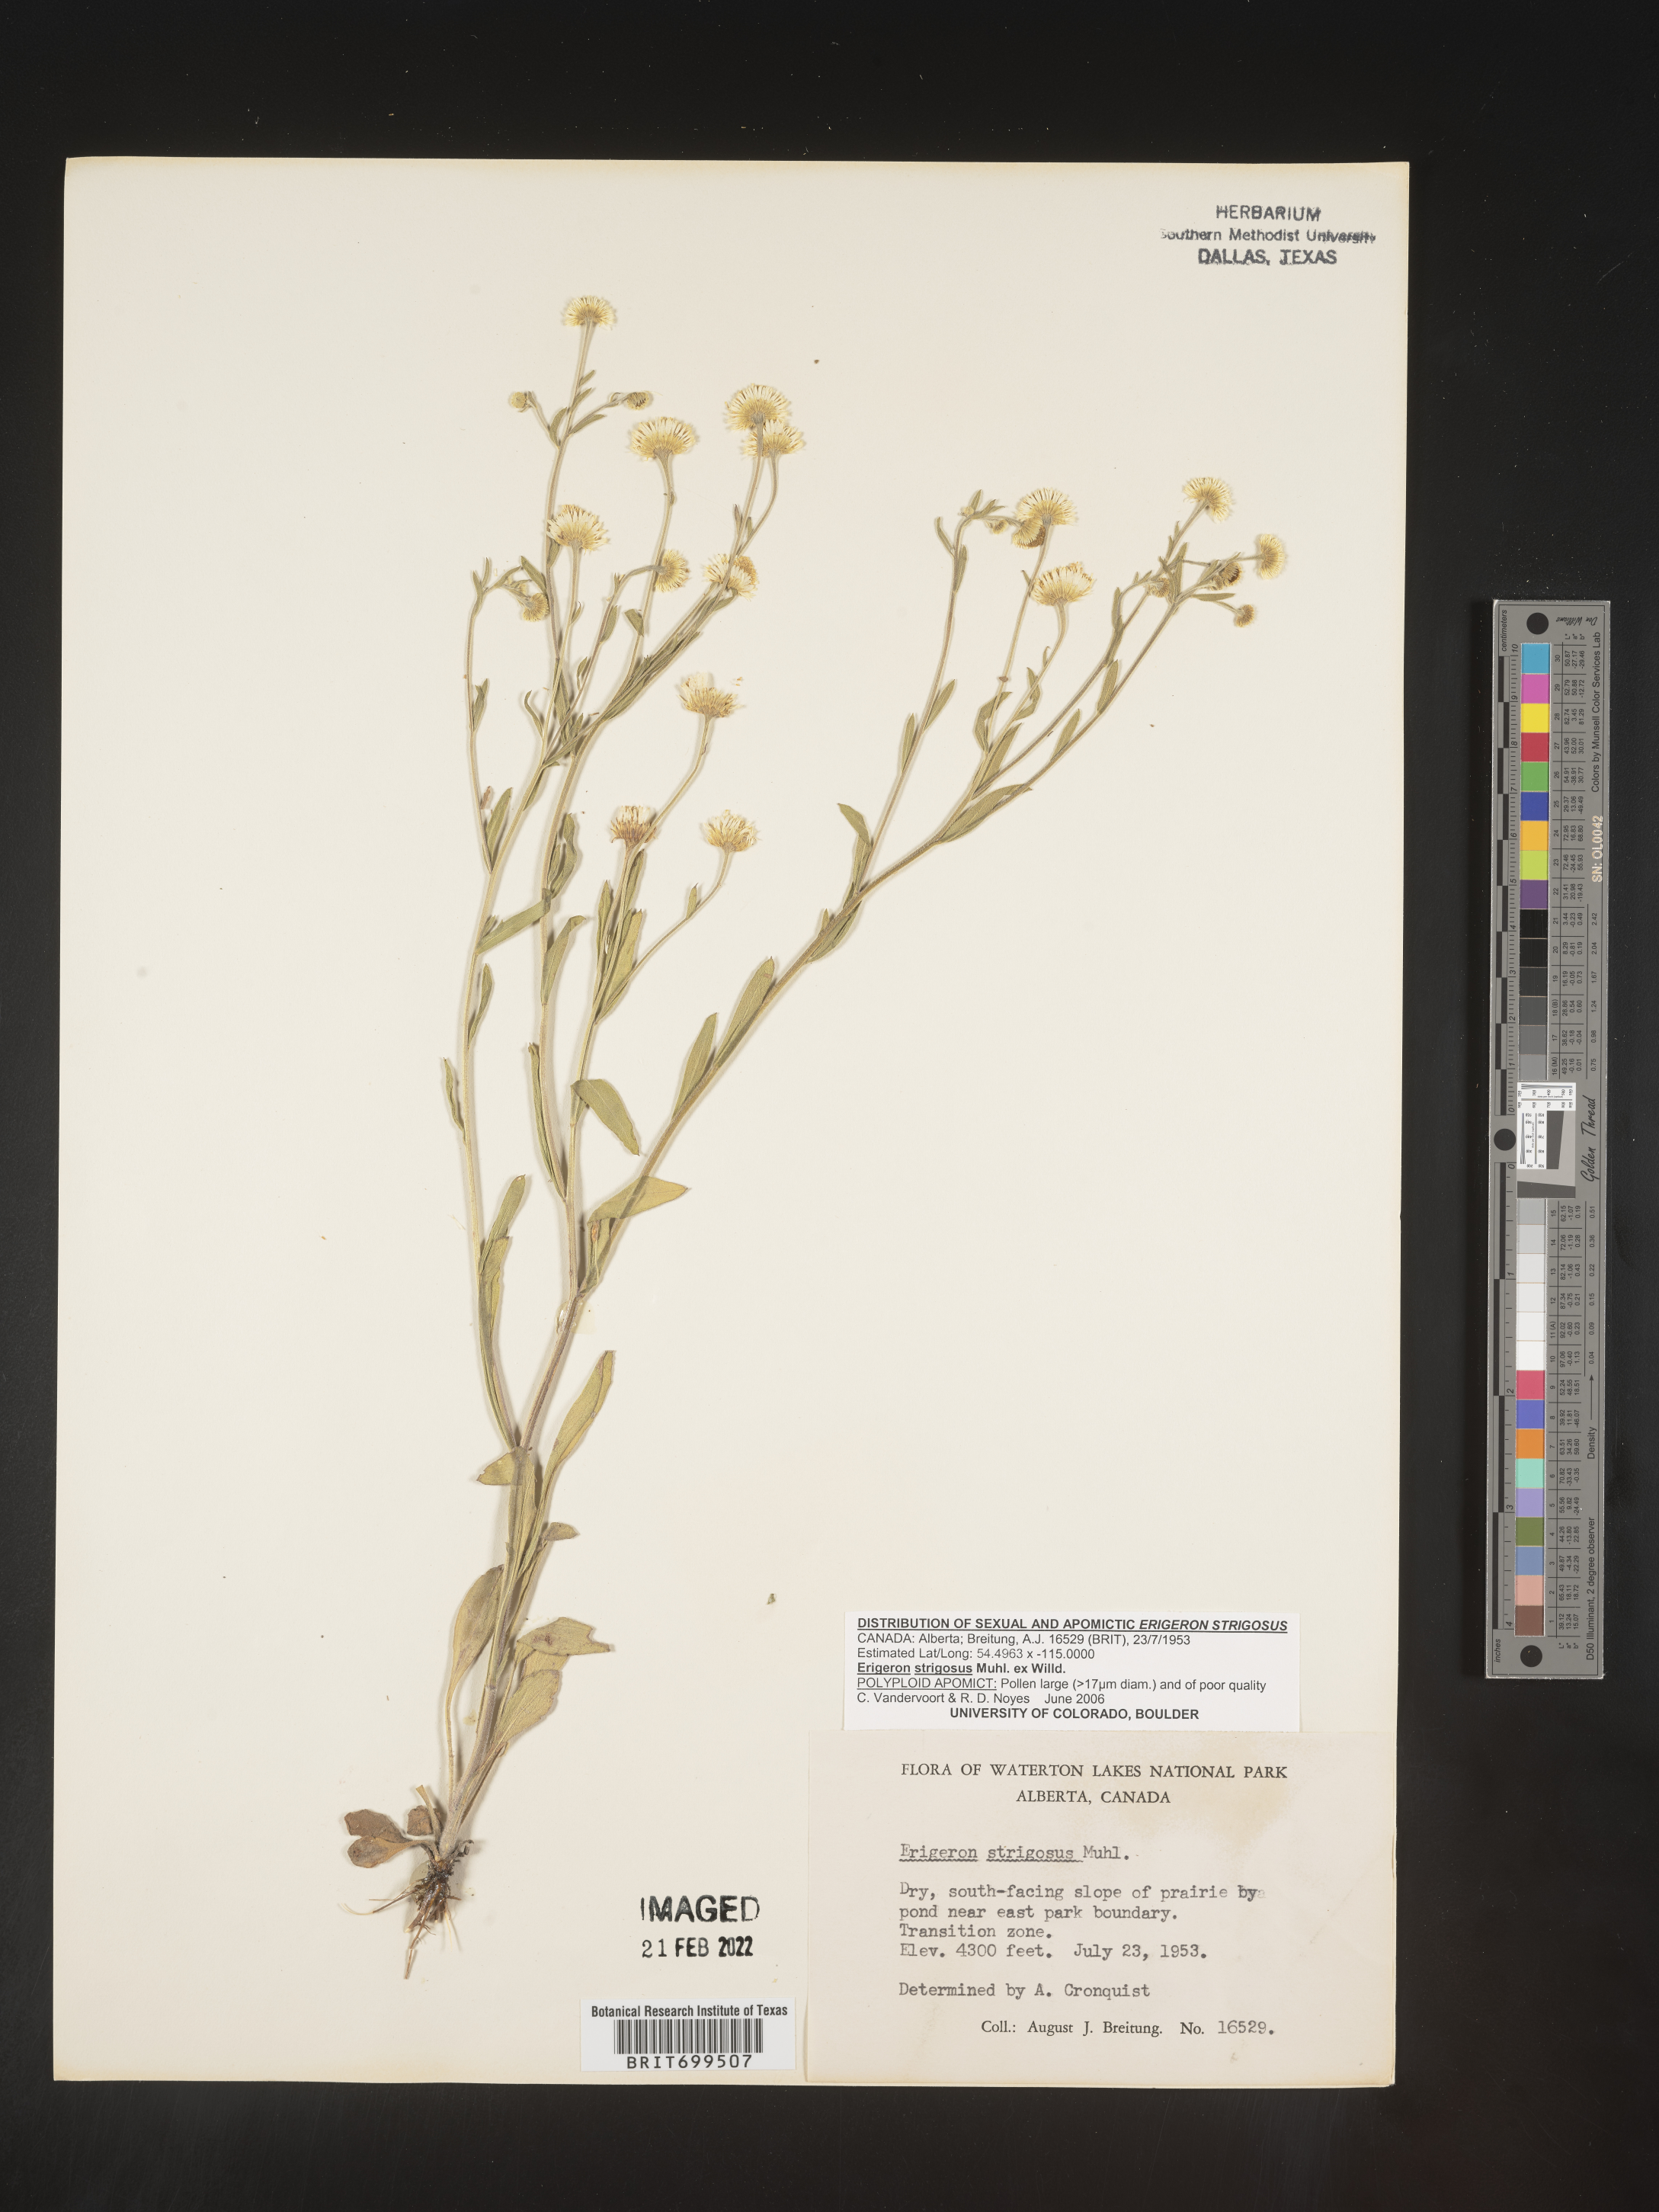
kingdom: Plantae
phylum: Tracheophyta
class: Magnoliopsida
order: Asterales
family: Asteraceae
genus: Erigeron
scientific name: Erigeron strigosus
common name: Common eastern fleabane
